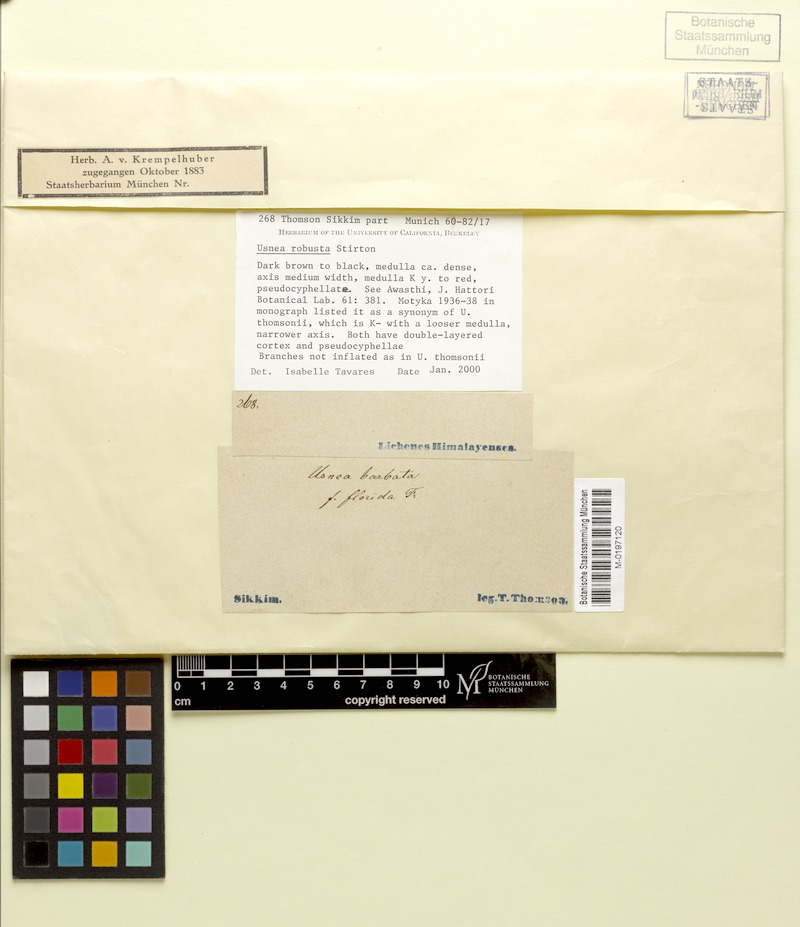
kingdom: Fungi
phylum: Ascomycota
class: Lecanoromycetes
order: Lecanorales
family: Parmeliaceae
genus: Usnea
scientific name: Usnea
